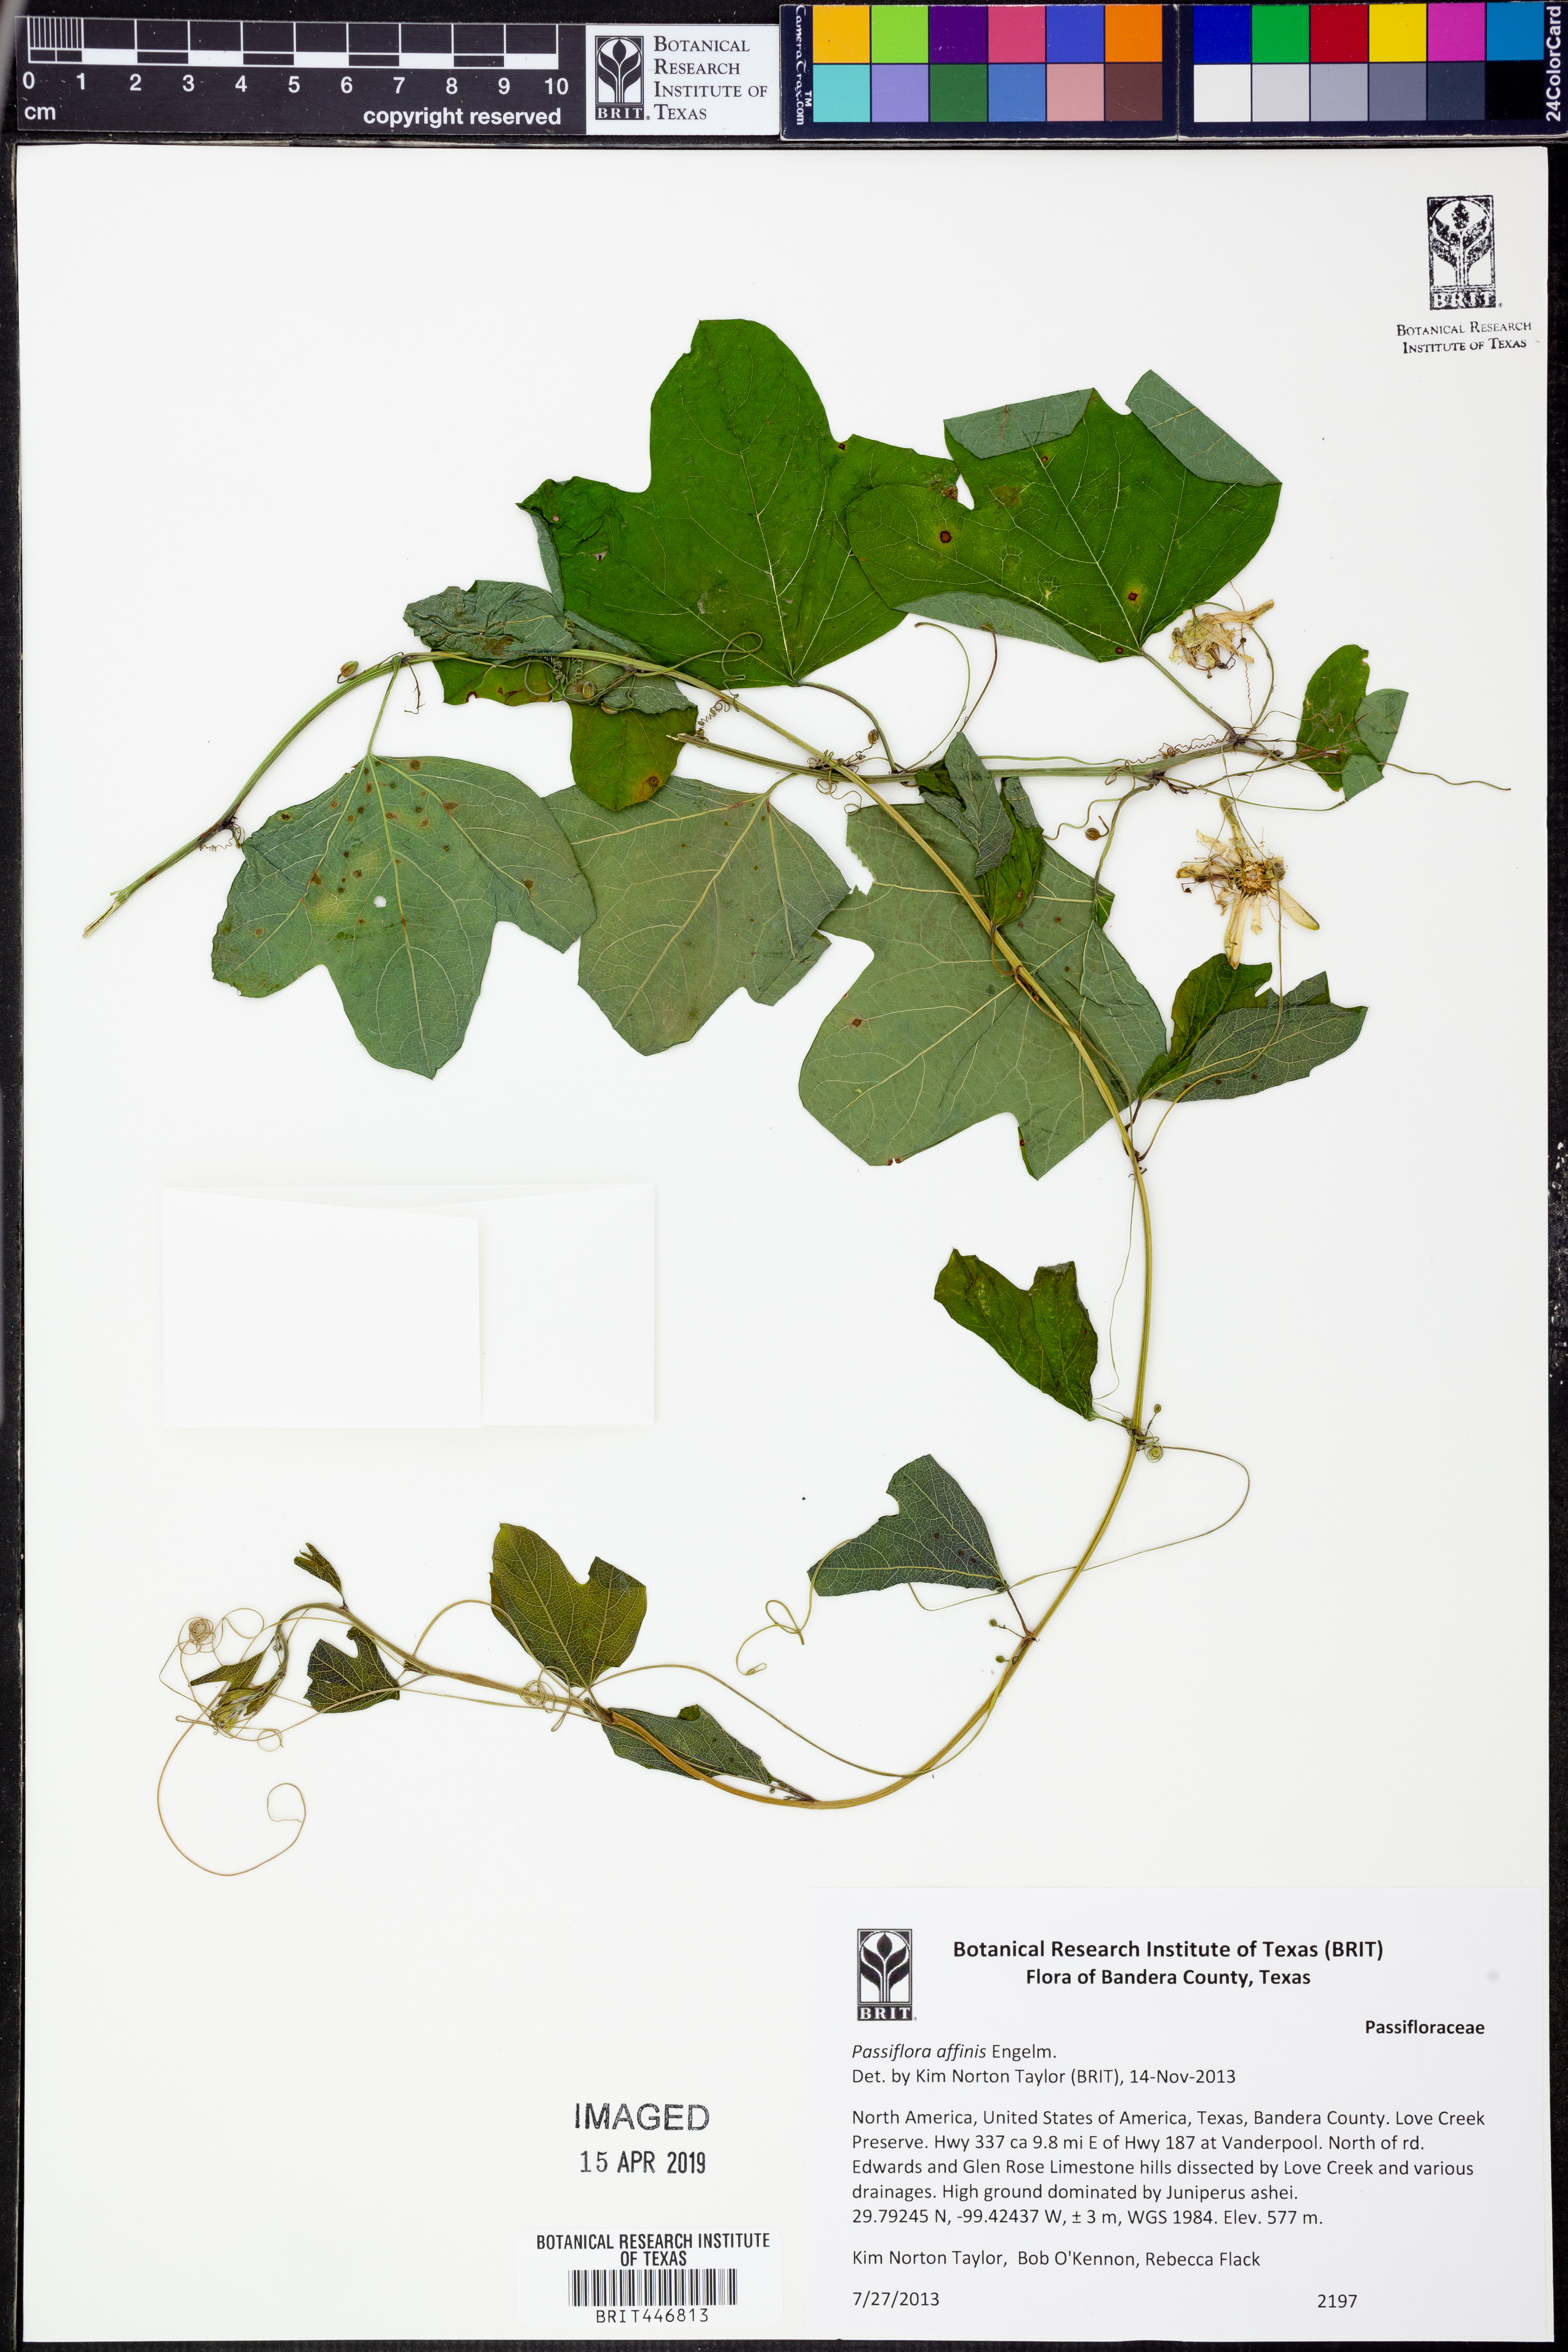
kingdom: Plantae
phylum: Tracheophyta
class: Magnoliopsida
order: Malpighiales
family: Passifloraceae
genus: Passiflora
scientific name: Passiflora affinis
